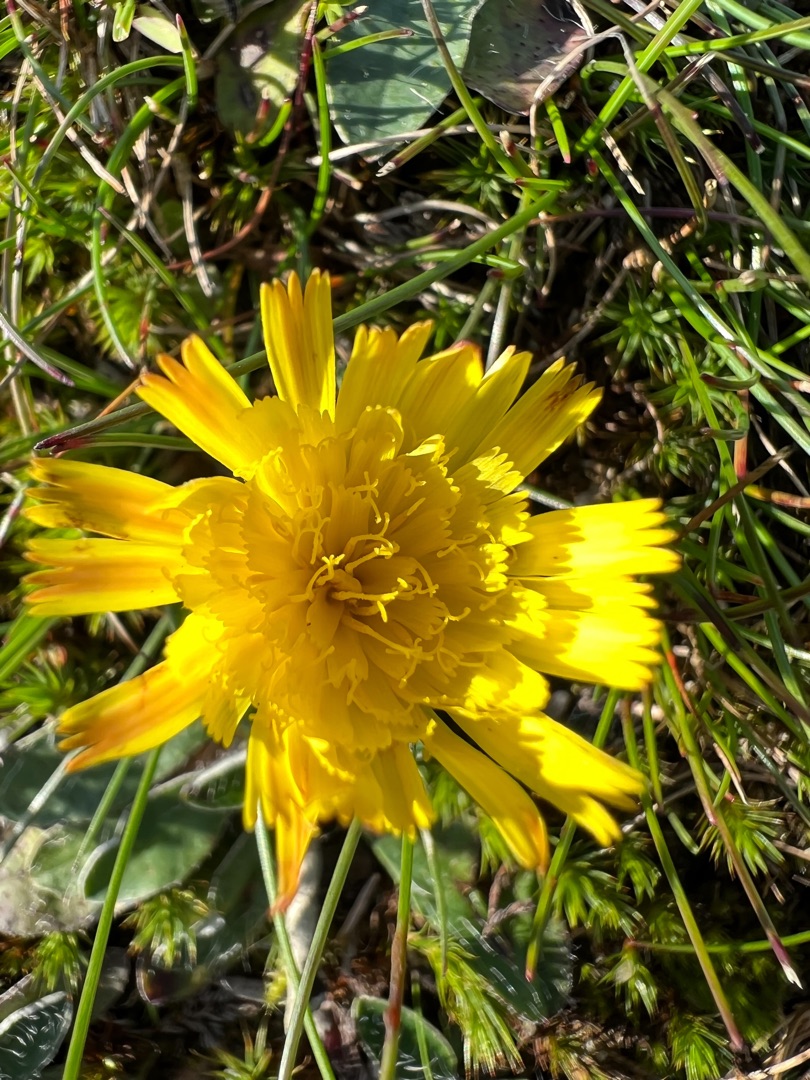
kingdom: Plantae
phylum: Tracheophyta
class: Magnoliopsida
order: Asterales
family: Asteraceae
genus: Pilosella
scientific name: Pilosella officinarum
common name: Håret høgeurt
